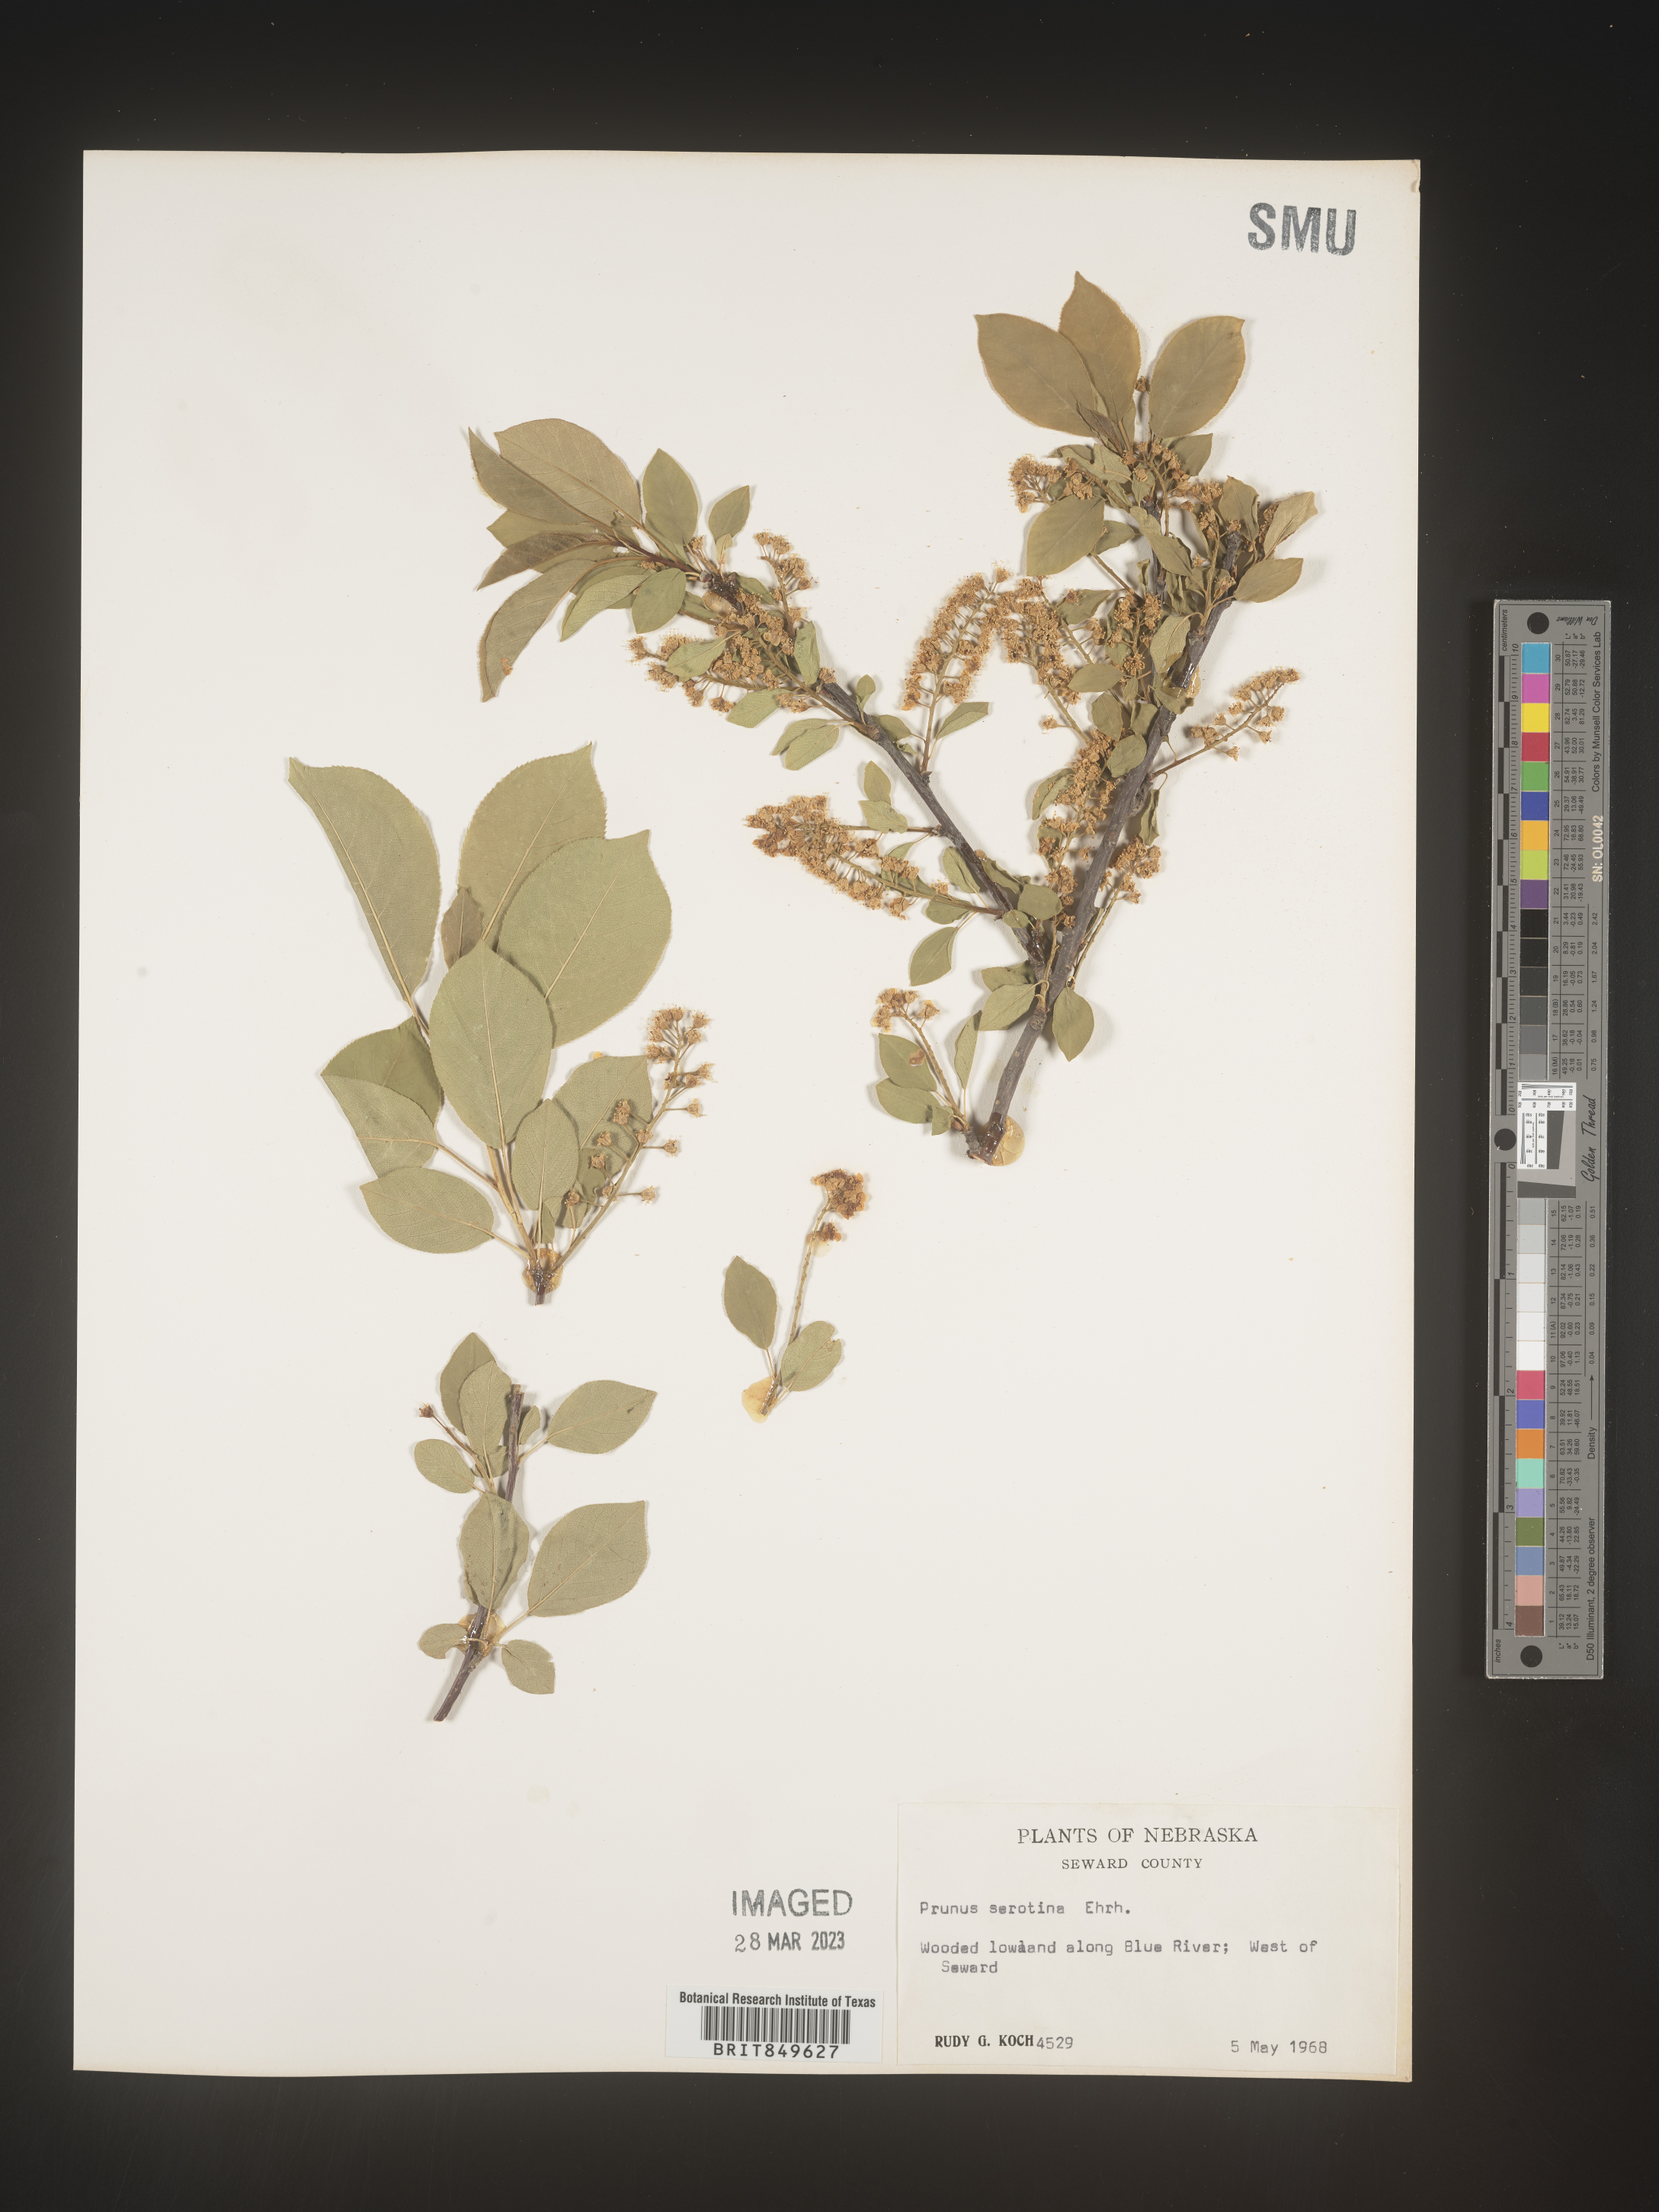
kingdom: Plantae
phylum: Tracheophyta
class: Magnoliopsida
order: Rosales
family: Rosaceae
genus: Prunus
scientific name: Prunus serotina
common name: Black cherry
